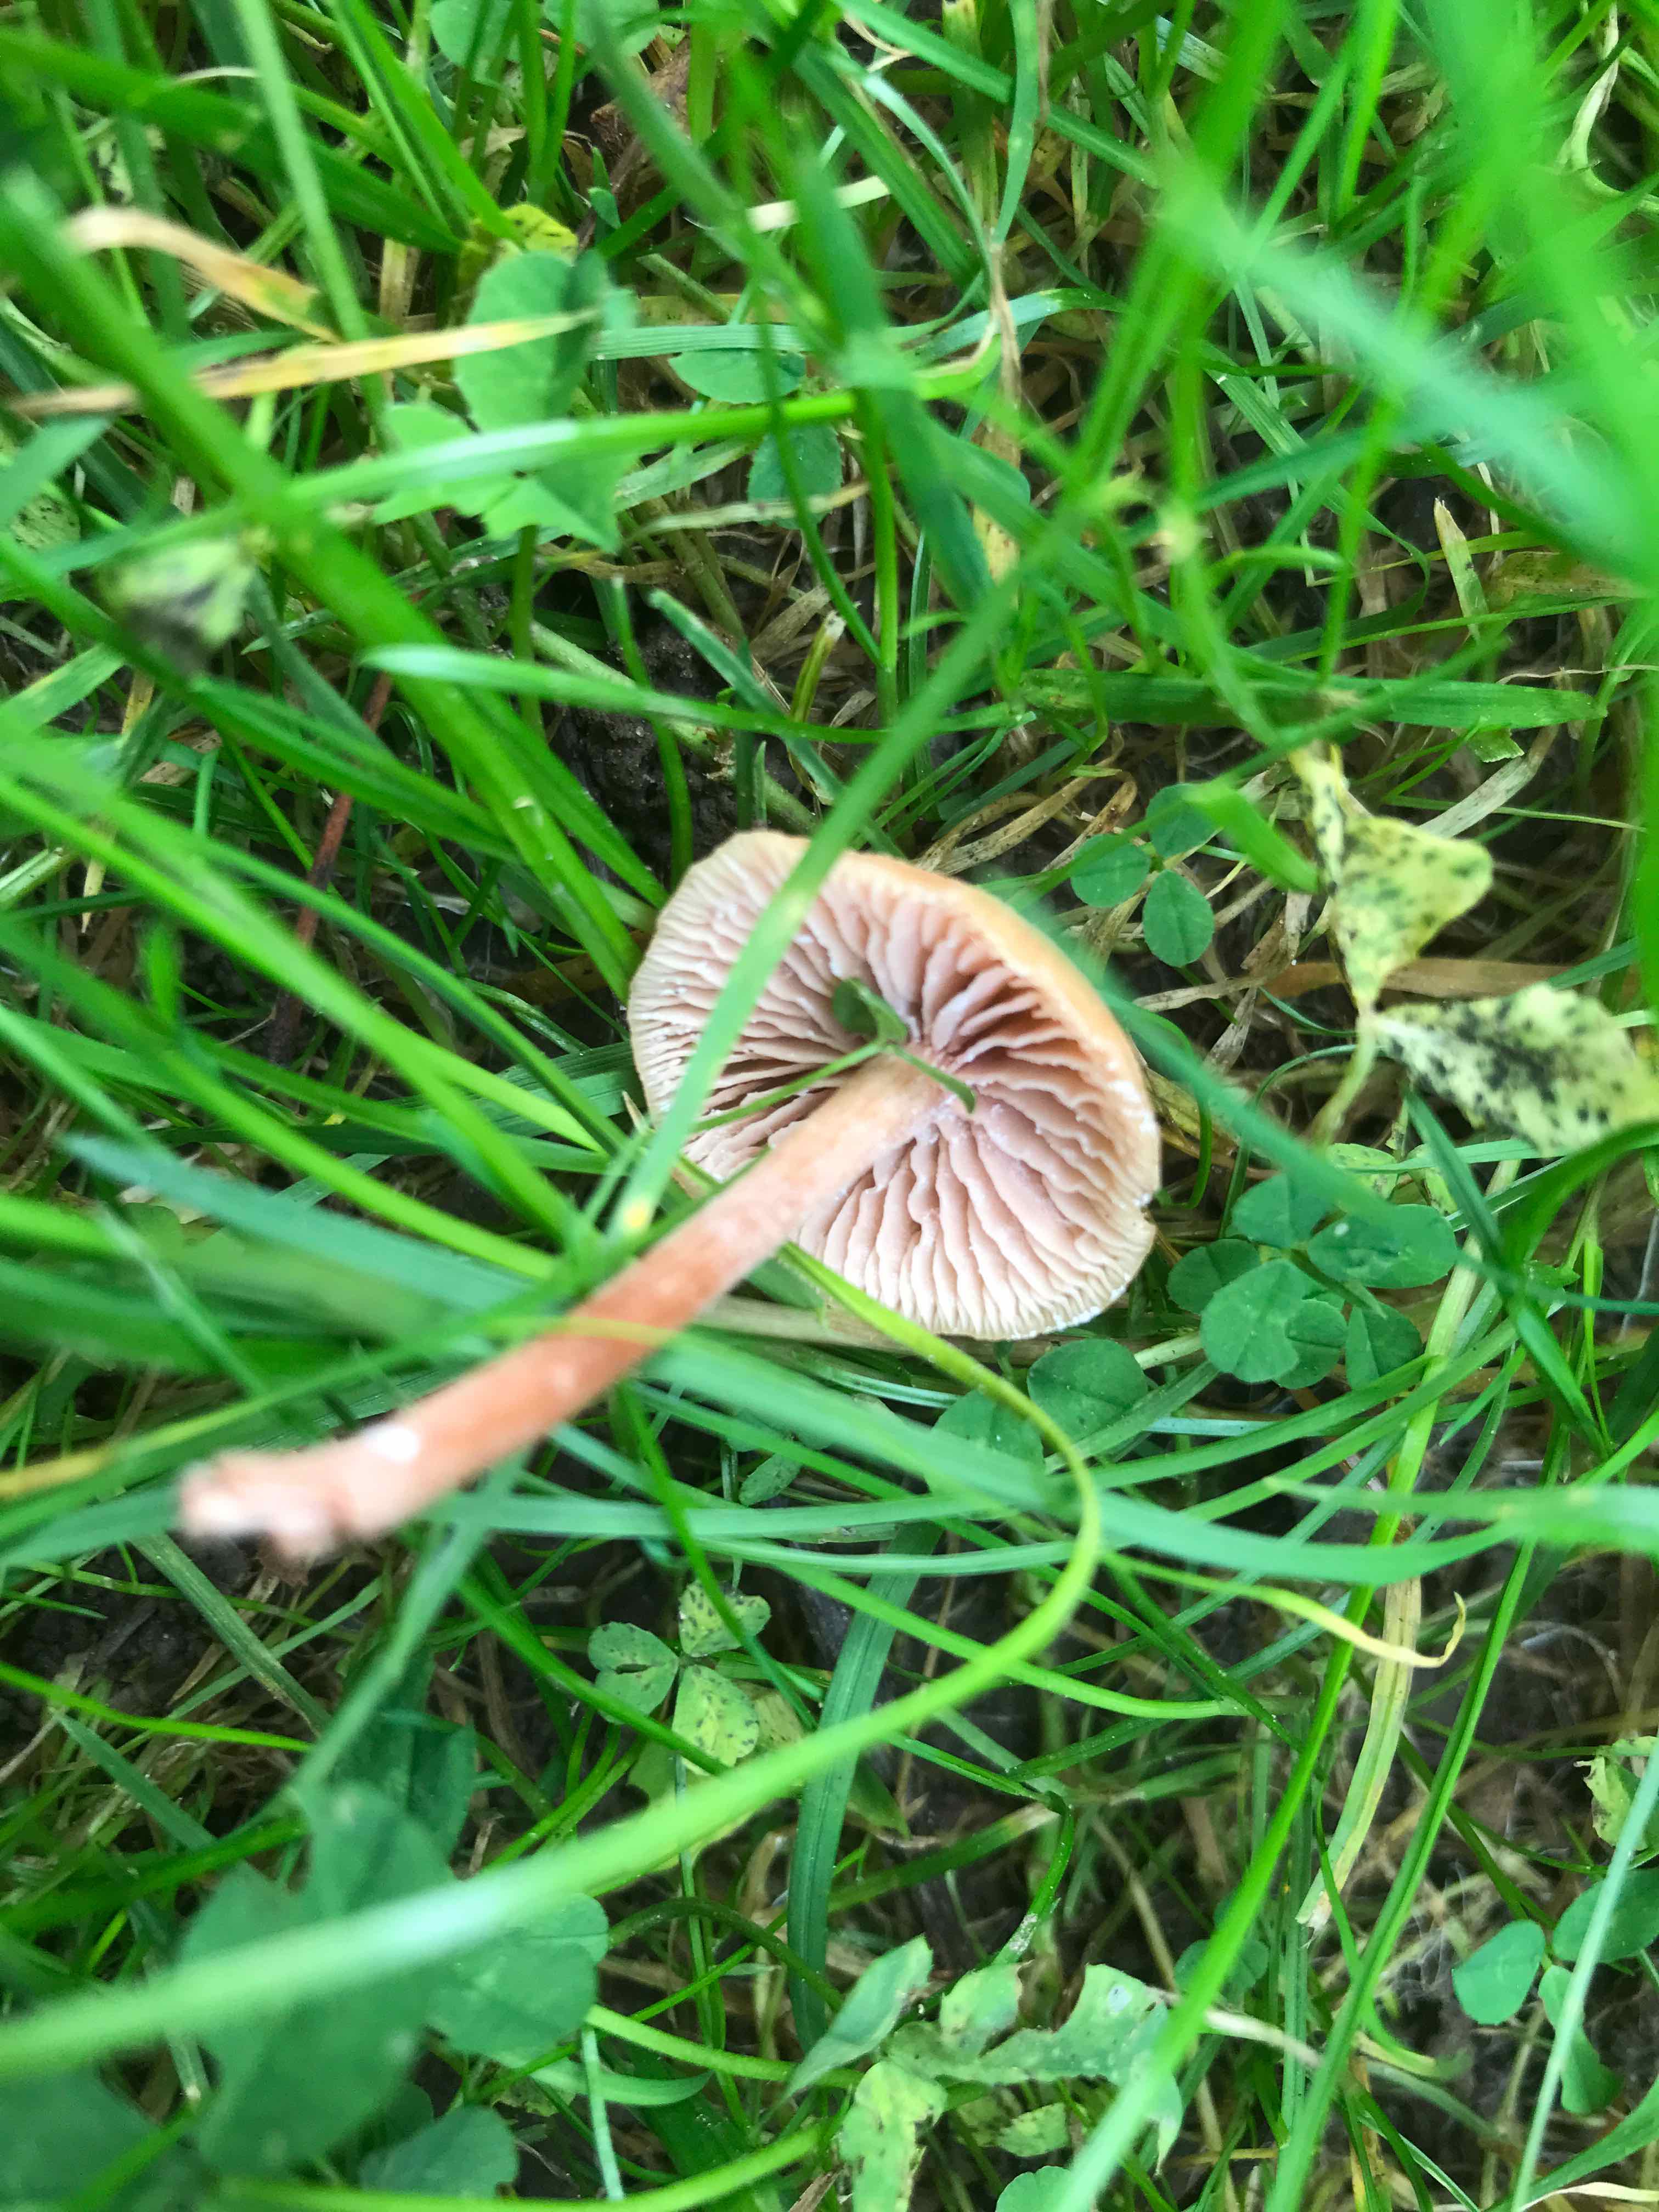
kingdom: Fungi
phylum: Basidiomycota
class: Agaricomycetes
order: Agaricales
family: Hydnangiaceae
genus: Laccaria
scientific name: Laccaria laccata
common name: rød ametysthat
